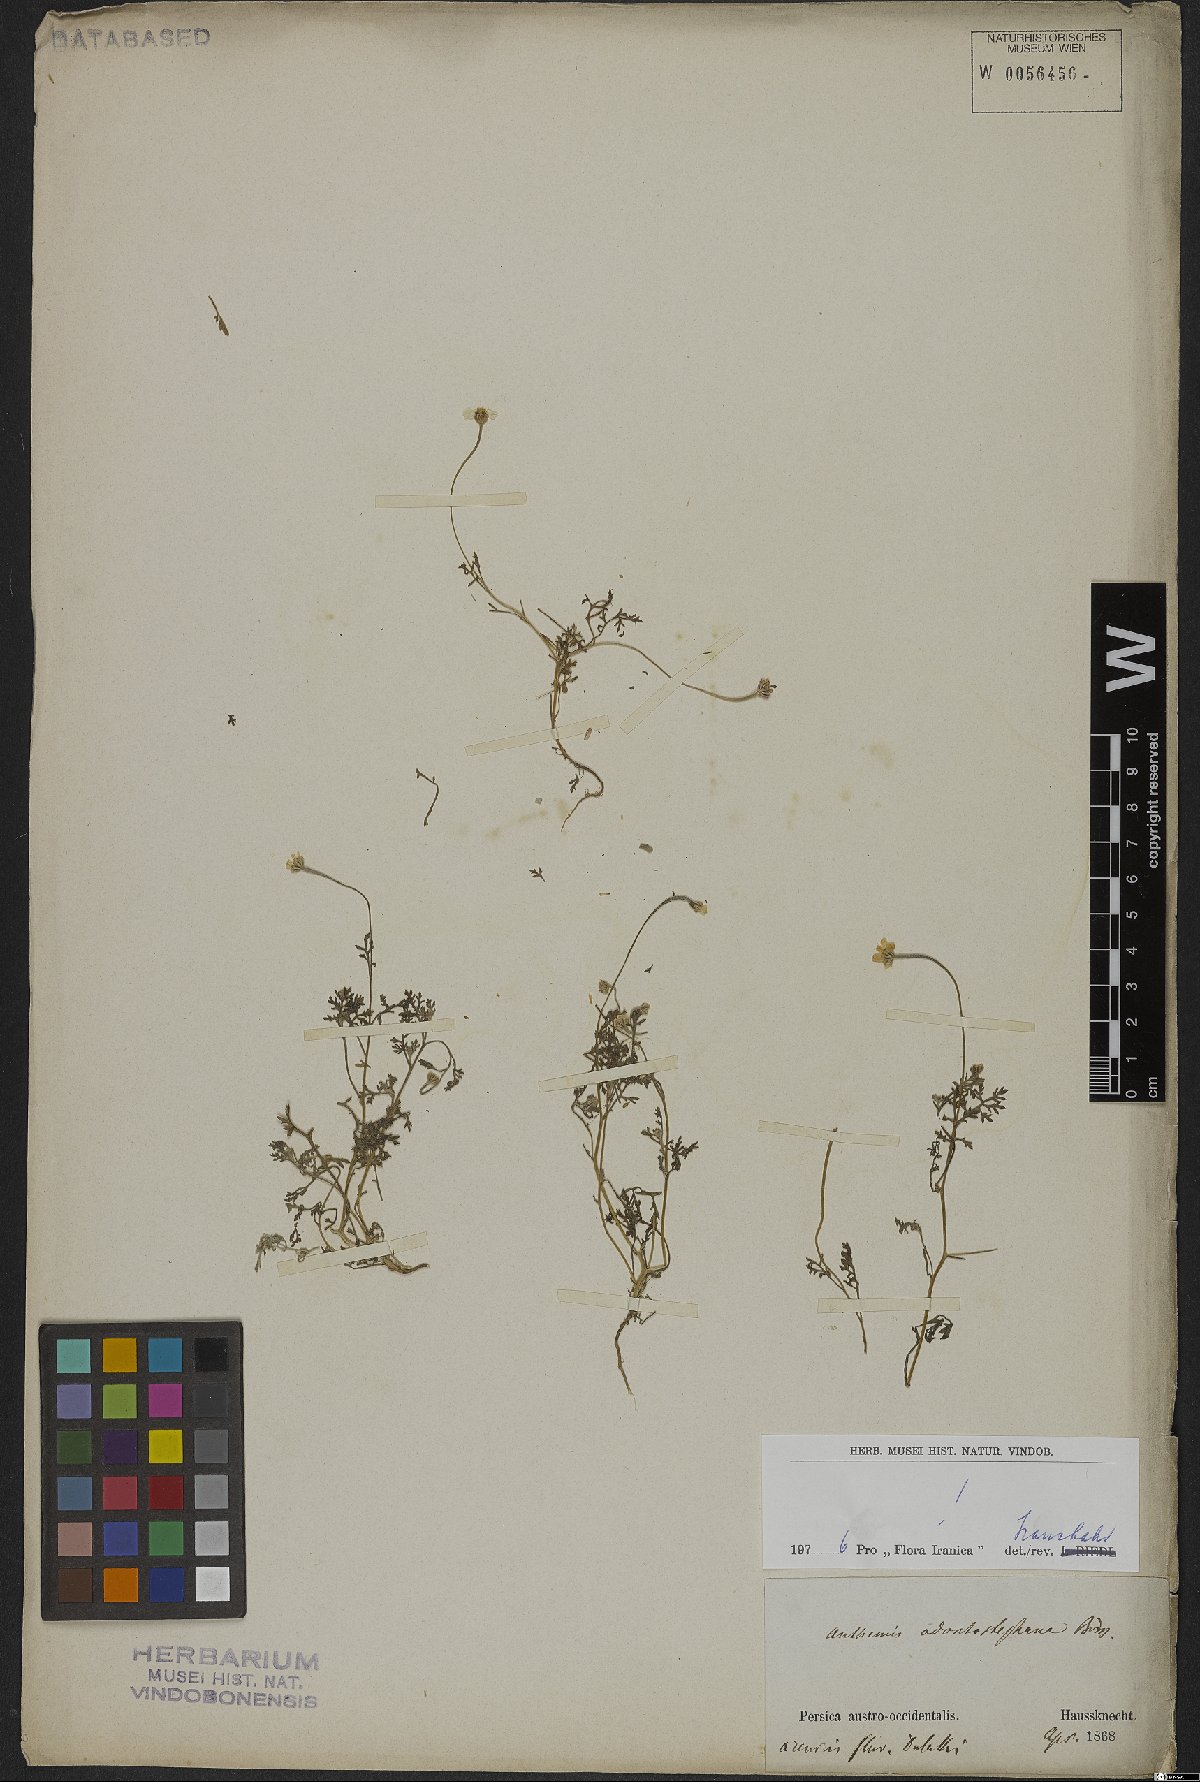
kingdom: Plantae
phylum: Tracheophyta
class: Magnoliopsida
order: Asterales
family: Asteraceae
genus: Anthemis
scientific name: Anthemis odontostephana
